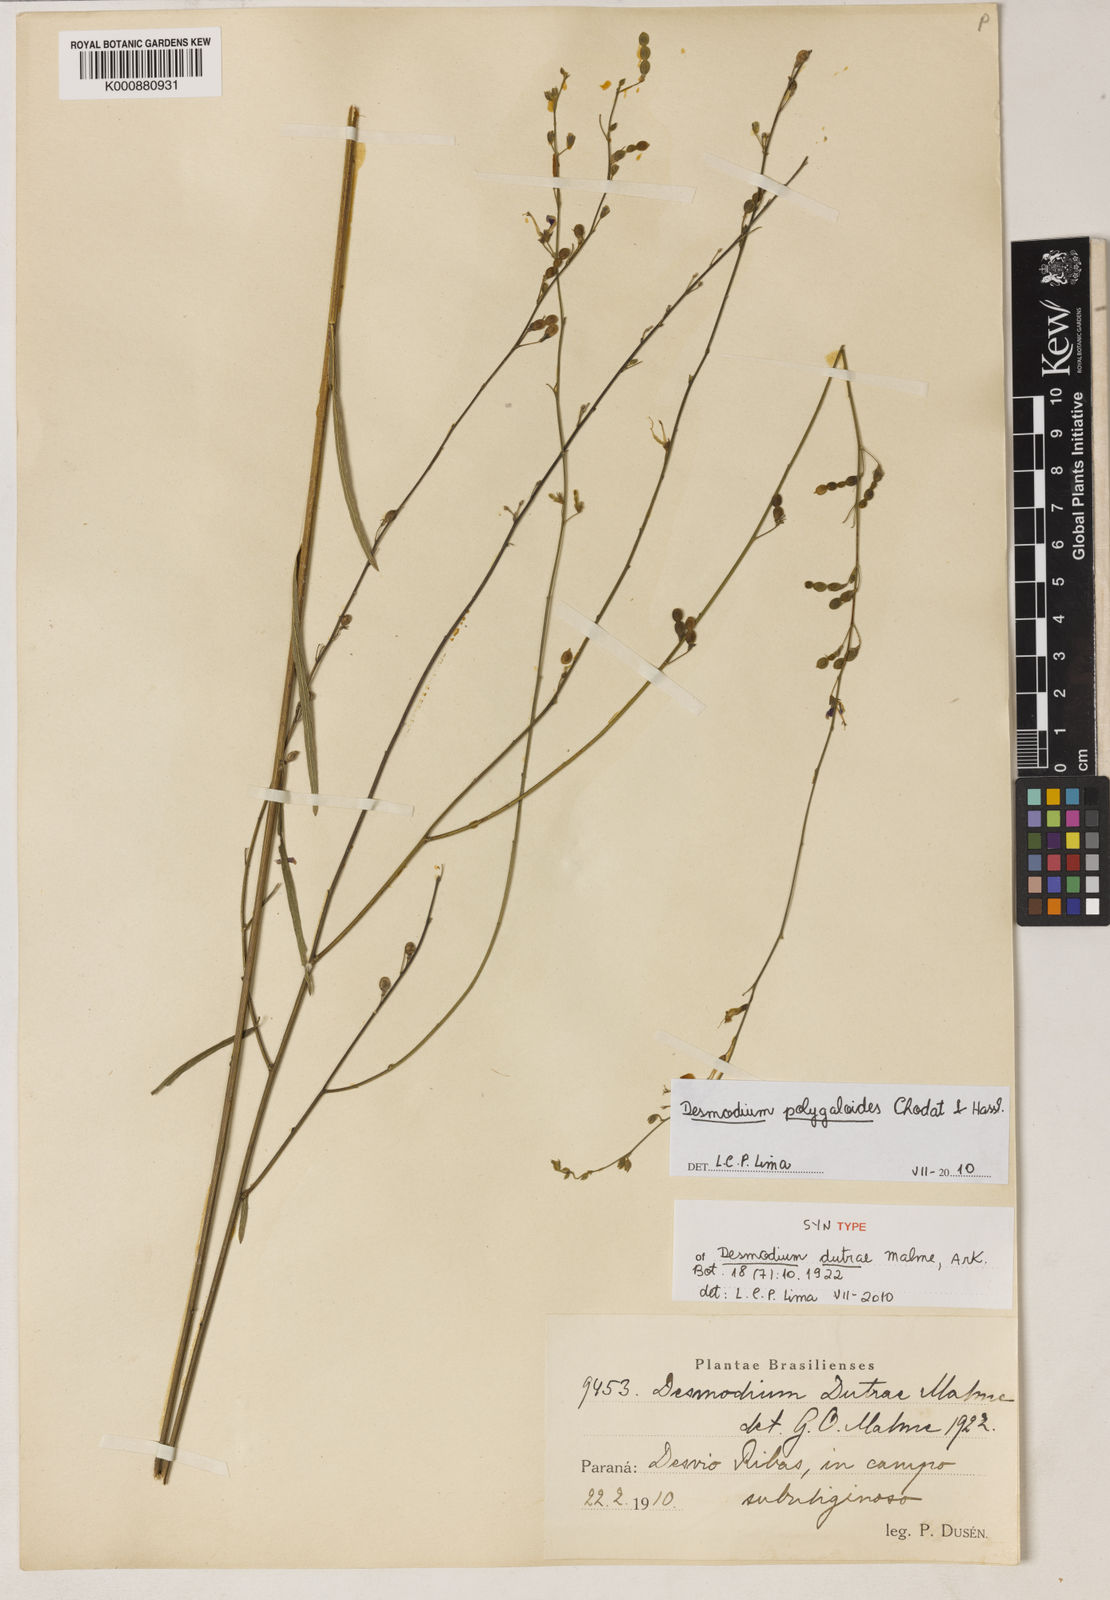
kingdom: Plantae
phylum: Tracheophyta
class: Magnoliopsida
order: Fabales
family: Fabaceae
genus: Desmodium
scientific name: Desmodium polygaloides
